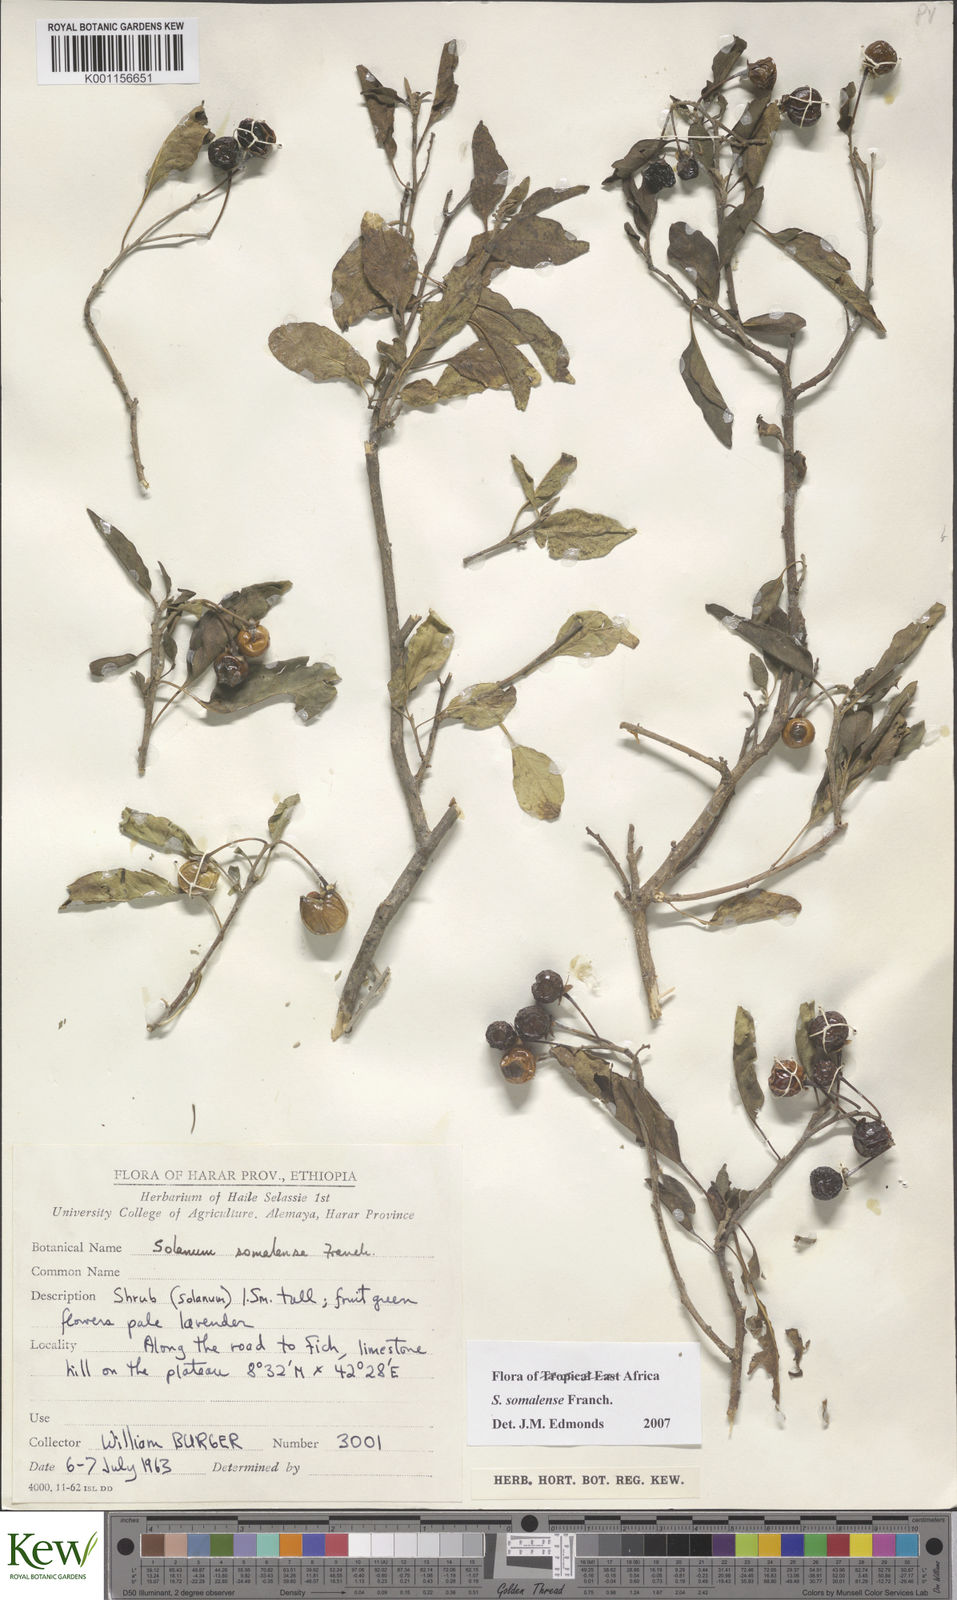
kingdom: Plantae
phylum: Tracheophyta
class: Magnoliopsida
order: Solanales
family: Solanaceae
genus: Solanum
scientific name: Solanum somalense
